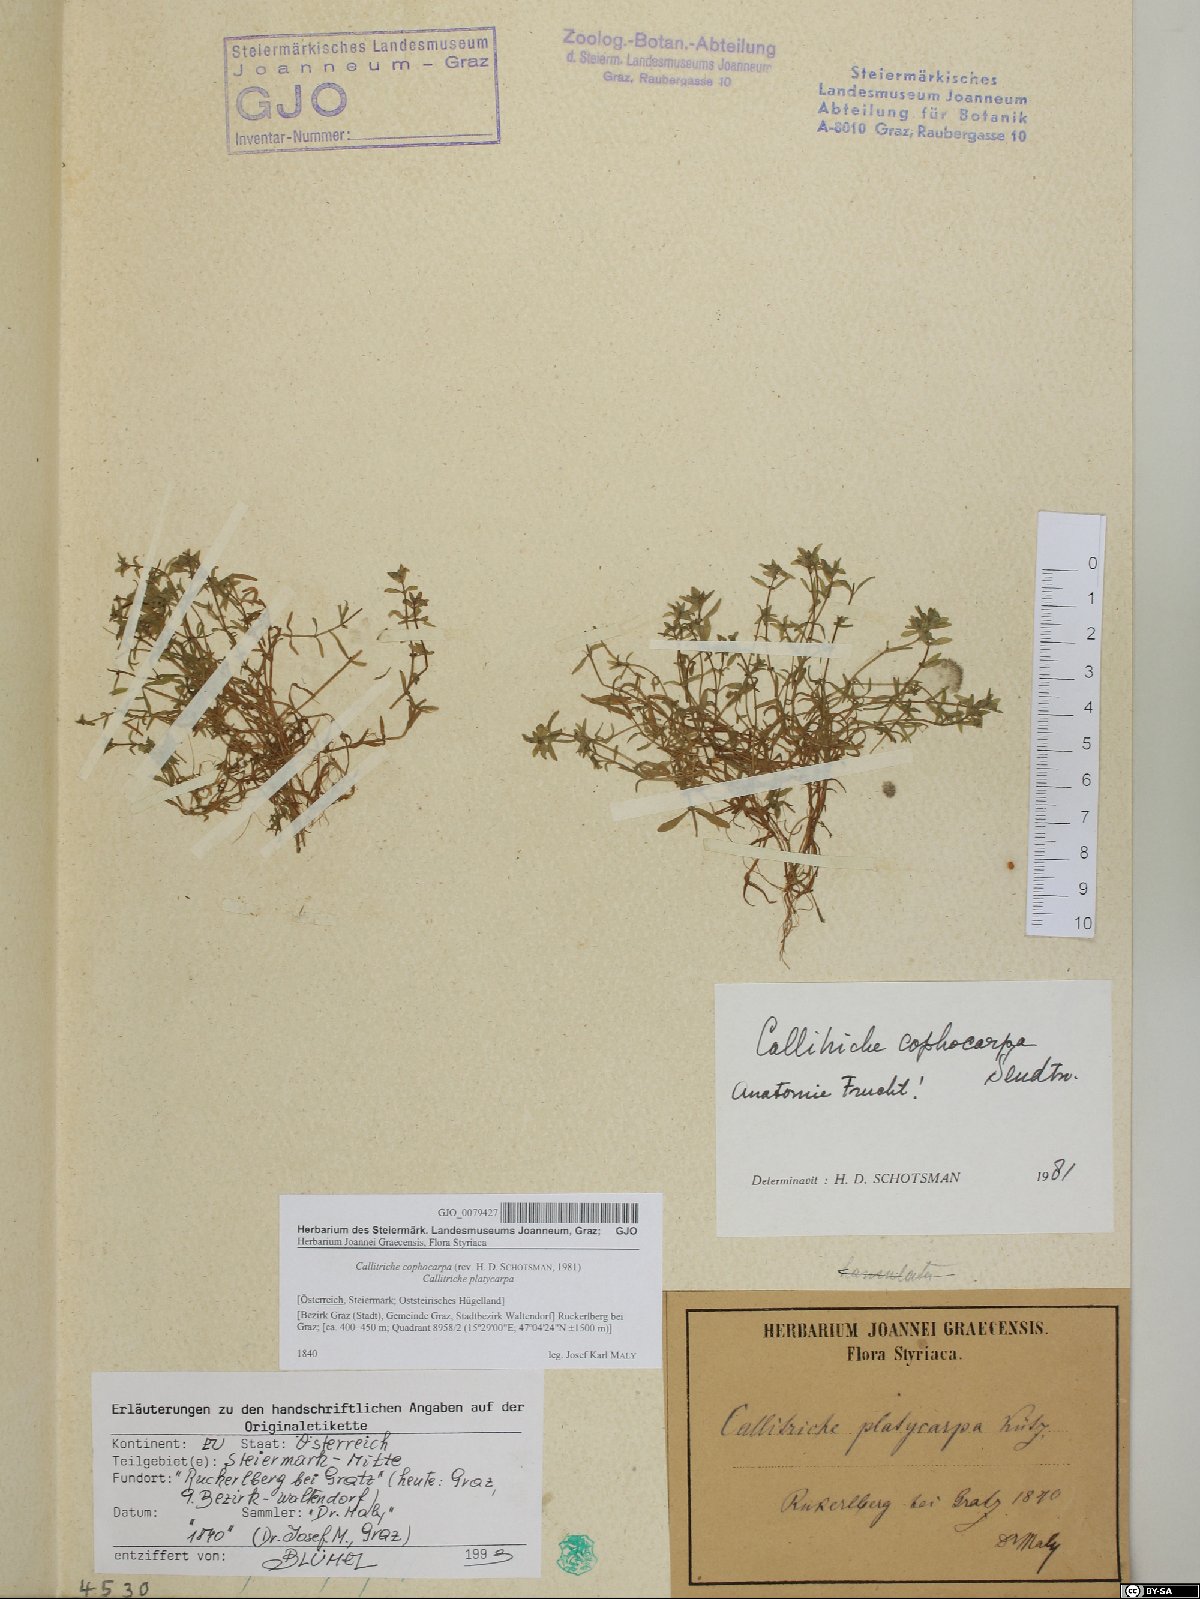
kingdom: Plantae
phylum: Tracheophyta
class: Magnoliopsida
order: Lamiales
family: Plantaginaceae
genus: Callitriche
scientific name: Callitriche cophocarpa
